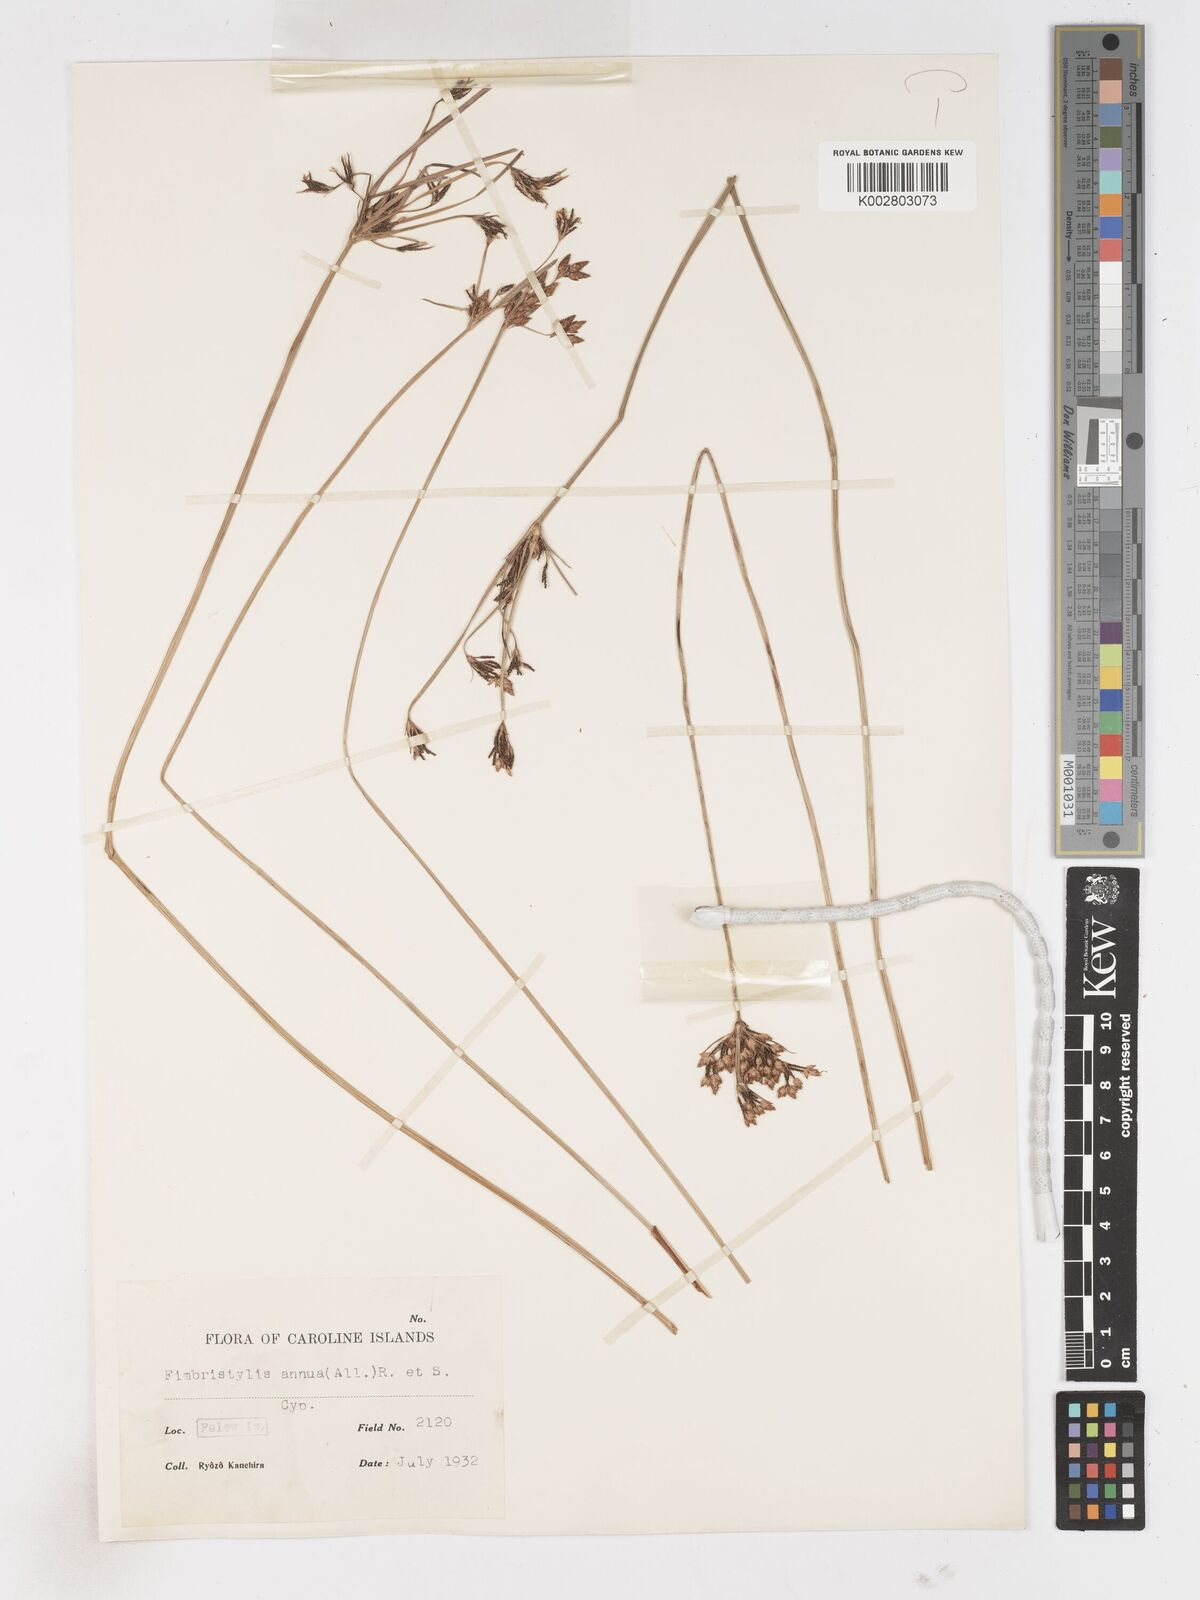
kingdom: Plantae
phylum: Tracheophyta
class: Liliopsida
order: Poales
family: Cyperaceae
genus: Fimbristylis
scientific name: Fimbristylis dichotoma
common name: Forked fimbry
